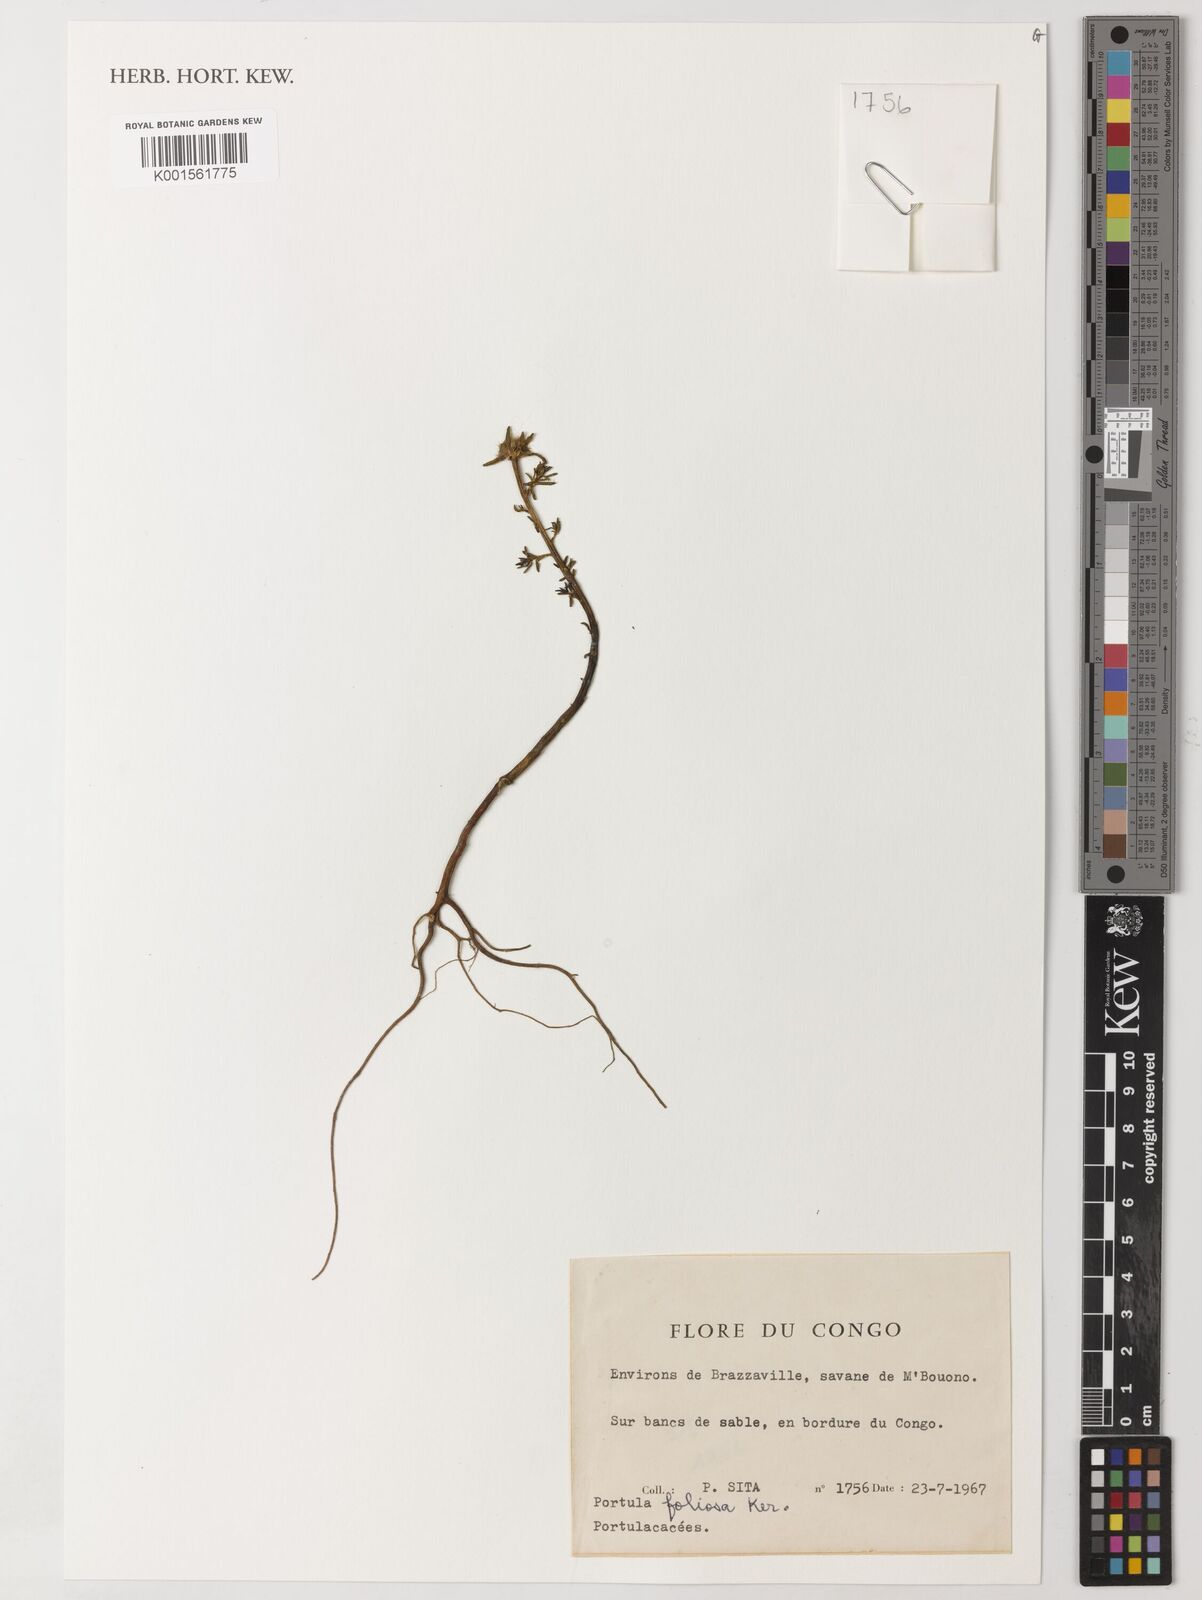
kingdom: Plantae
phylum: Tracheophyta
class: Magnoliopsida
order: Caryophyllales
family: Portulacaceae
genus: Portulaca
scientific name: Portulaca foliosa
